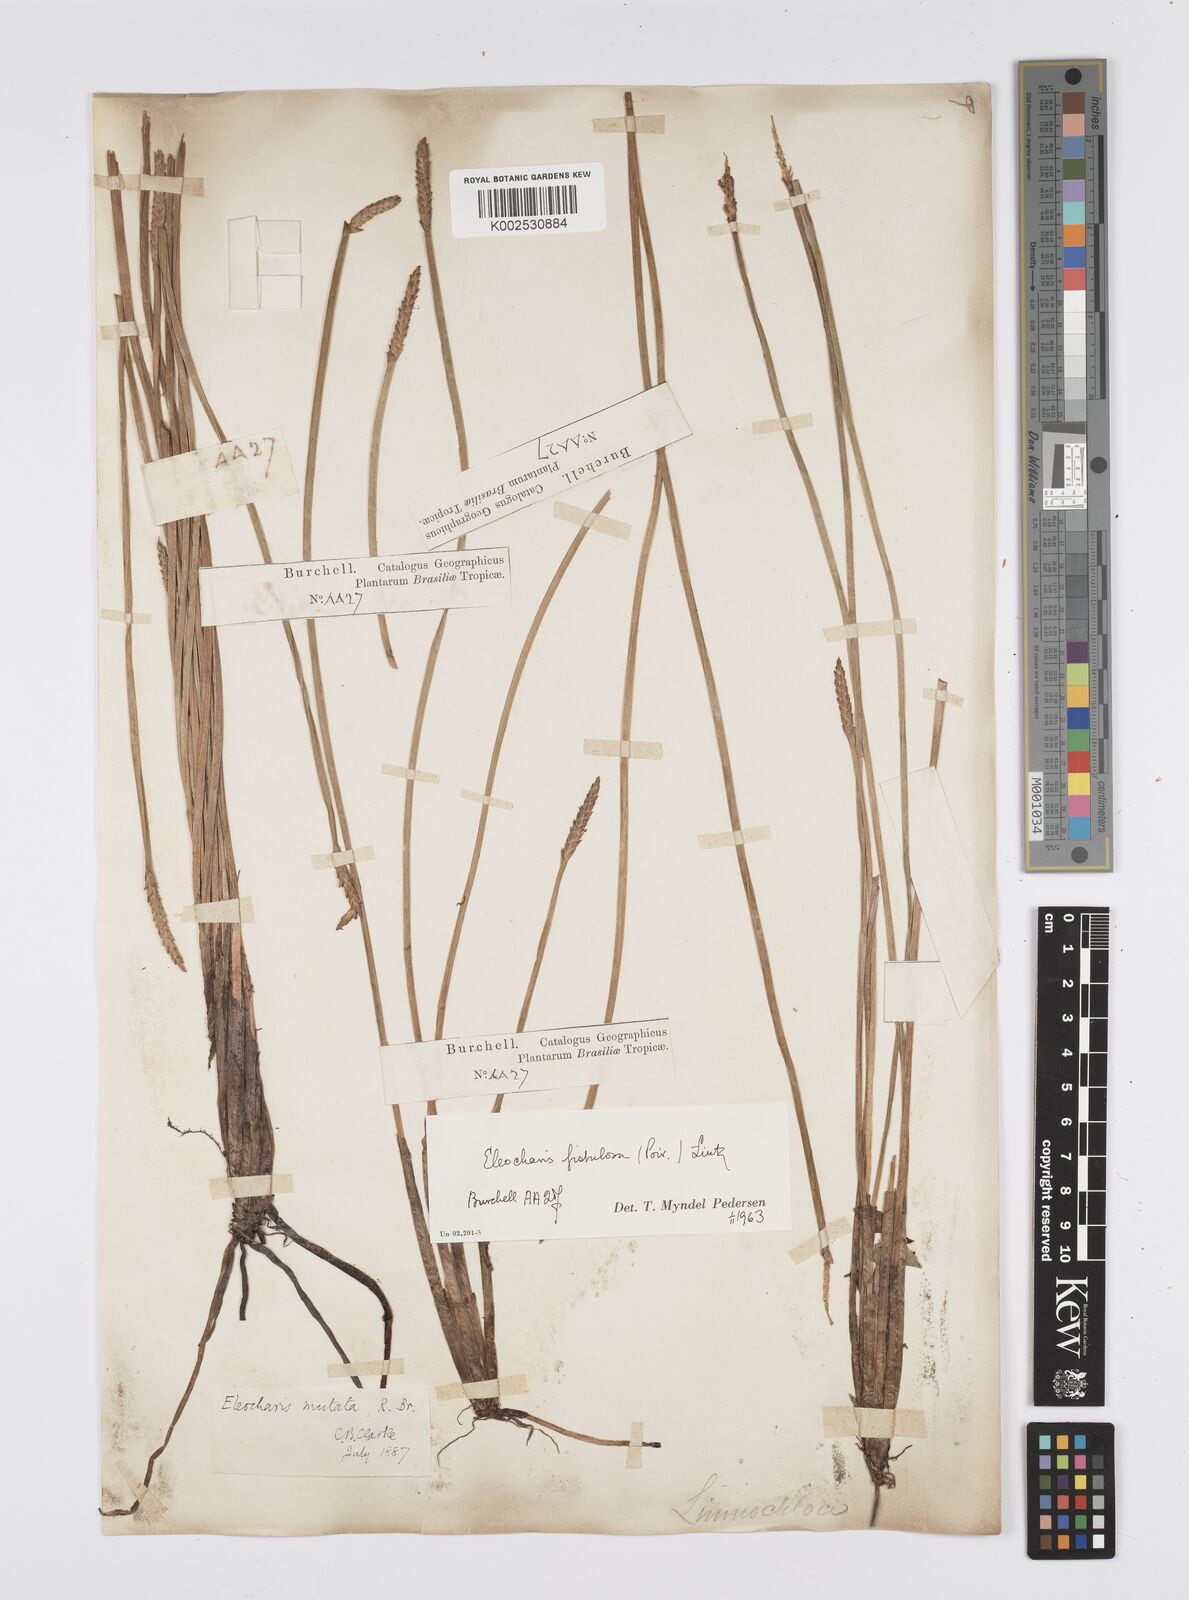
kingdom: Plantae
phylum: Tracheophyta
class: Liliopsida
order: Poales
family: Cyperaceae
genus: Eleocharis
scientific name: Eleocharis acutangula
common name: Acute spikerush
